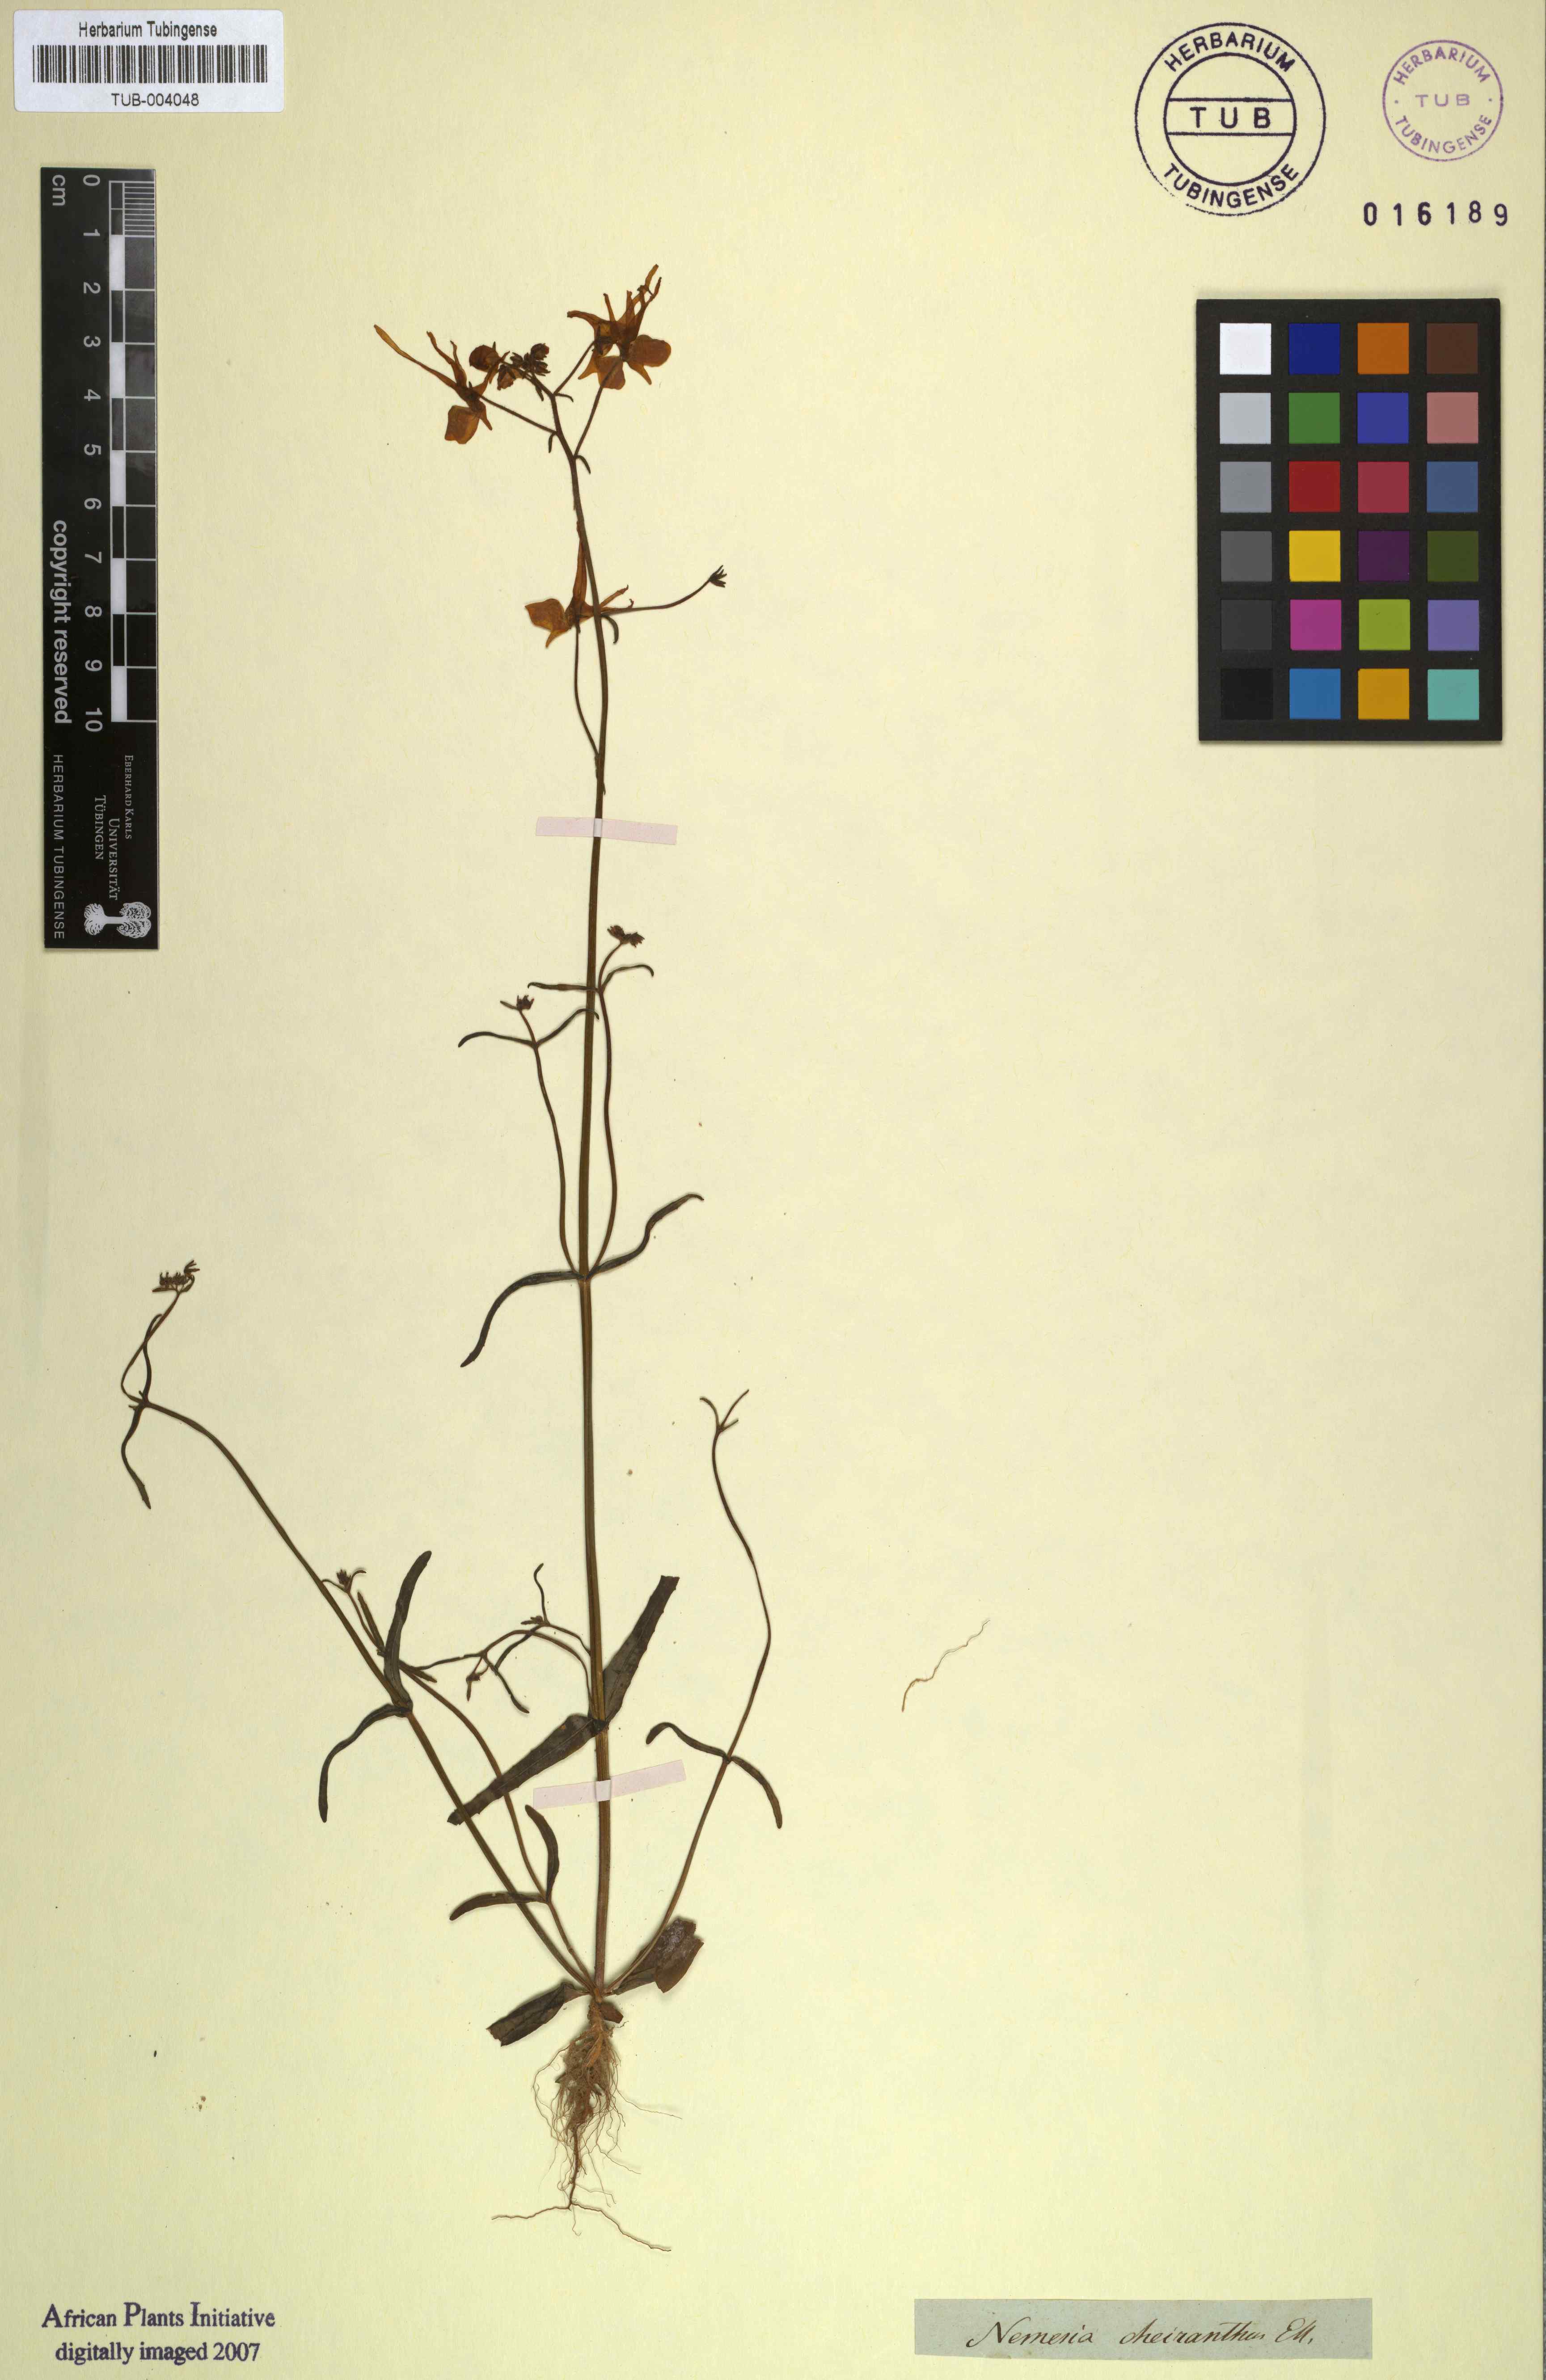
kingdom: Plantae
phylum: Tracheophyta
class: Magnoliopsida
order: Lamiales
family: Scrophulariaceae
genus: Nemesia
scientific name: Nemesia cheiranthus
